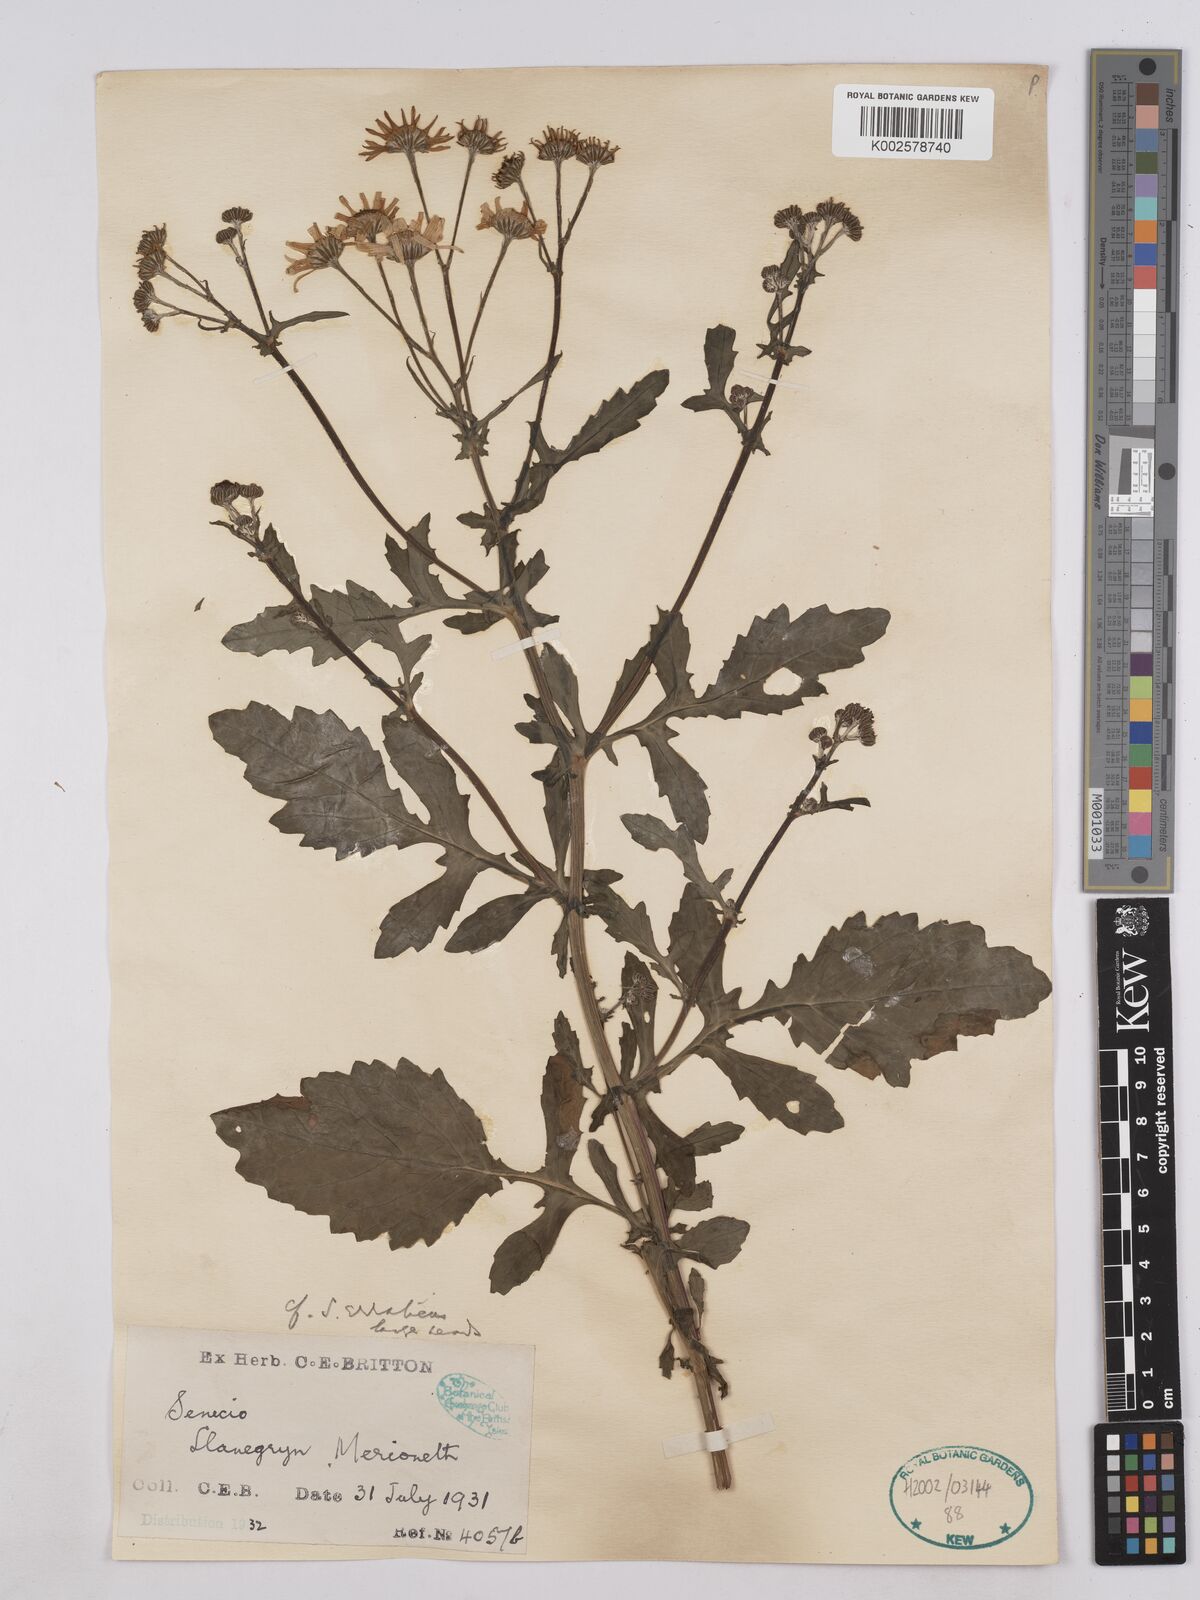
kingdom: Plantae
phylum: Tracheophyta
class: Magnoliopsida
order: Asterales
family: Asteraceae
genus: Jacobaea
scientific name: Jacobaea aquatica
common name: Water ragwort
